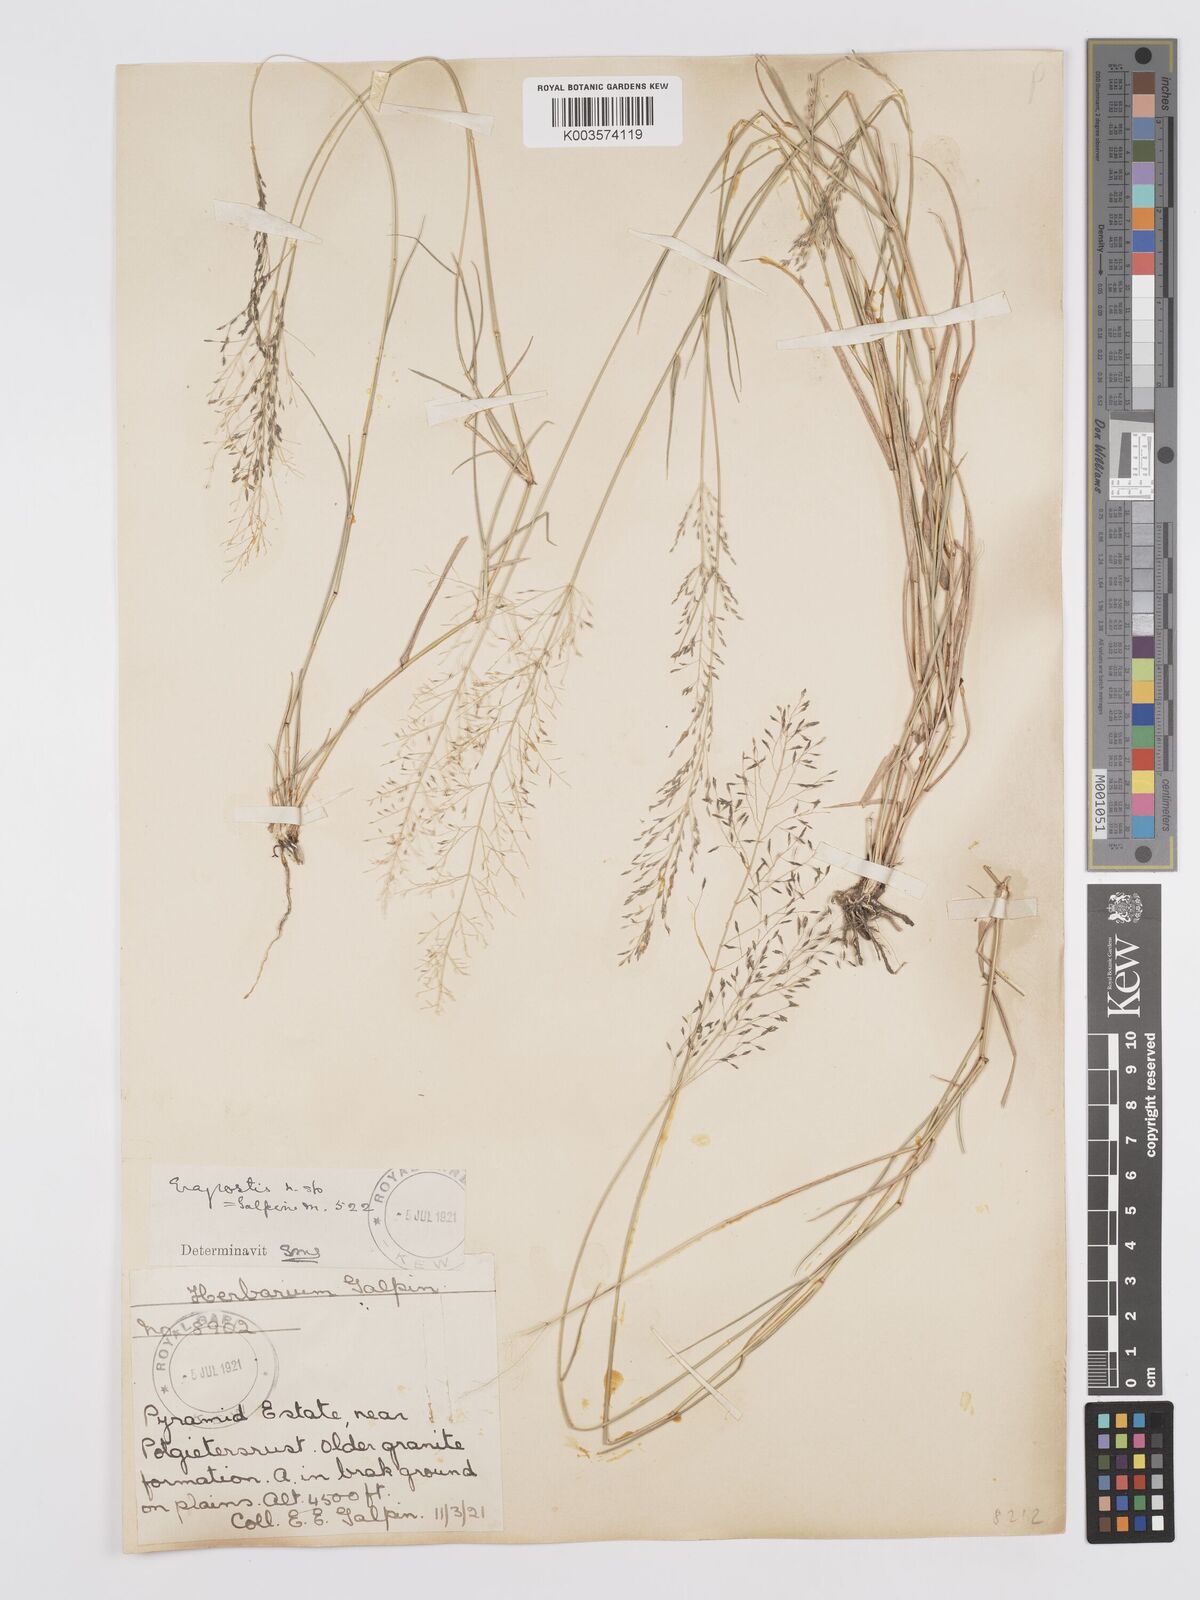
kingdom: Plantae
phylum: Tracheophyta
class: Liliopsida
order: Poales
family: Poaceae
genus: Eragrostis
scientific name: Eragrostis cylindriflora
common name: Cylinderflower lovegrass
